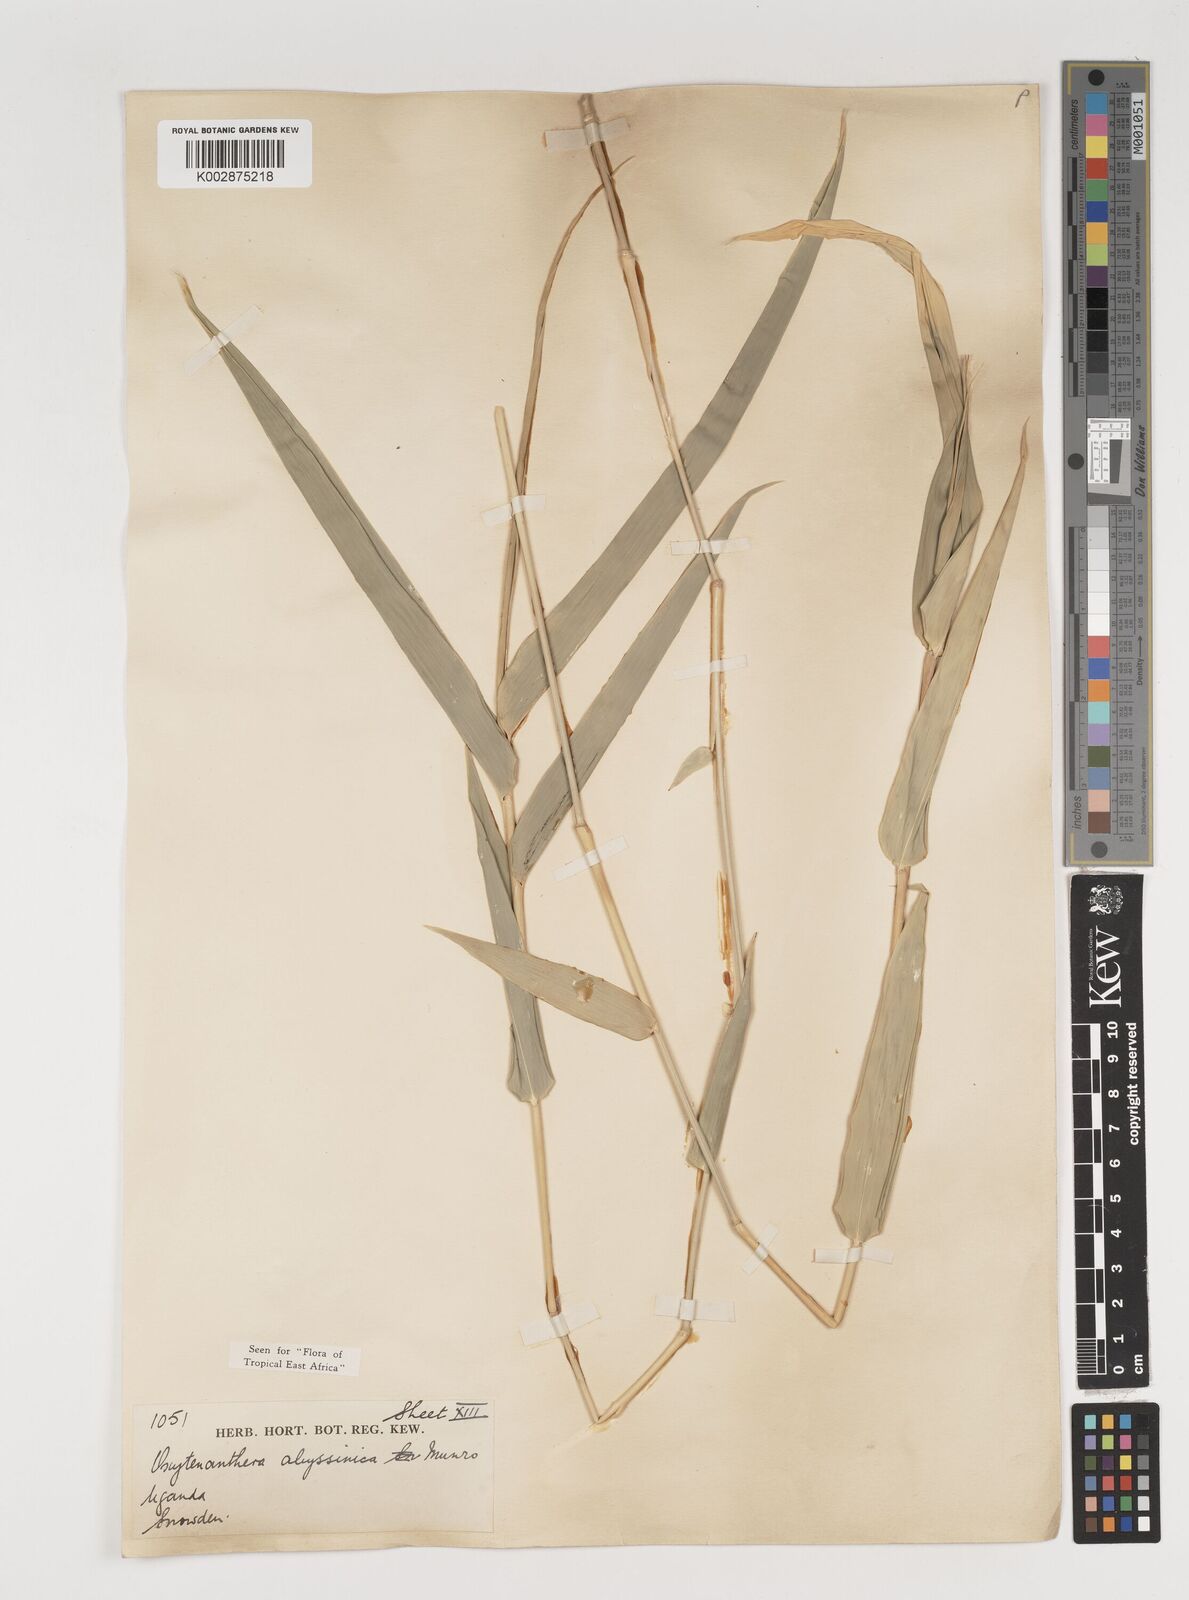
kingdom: Plantae
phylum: Tracheophyta
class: Liliopsida
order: Poales
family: Poaceae
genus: Oxytenanthera
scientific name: Oxytenanthera abyssinica
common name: Wine bamboo
